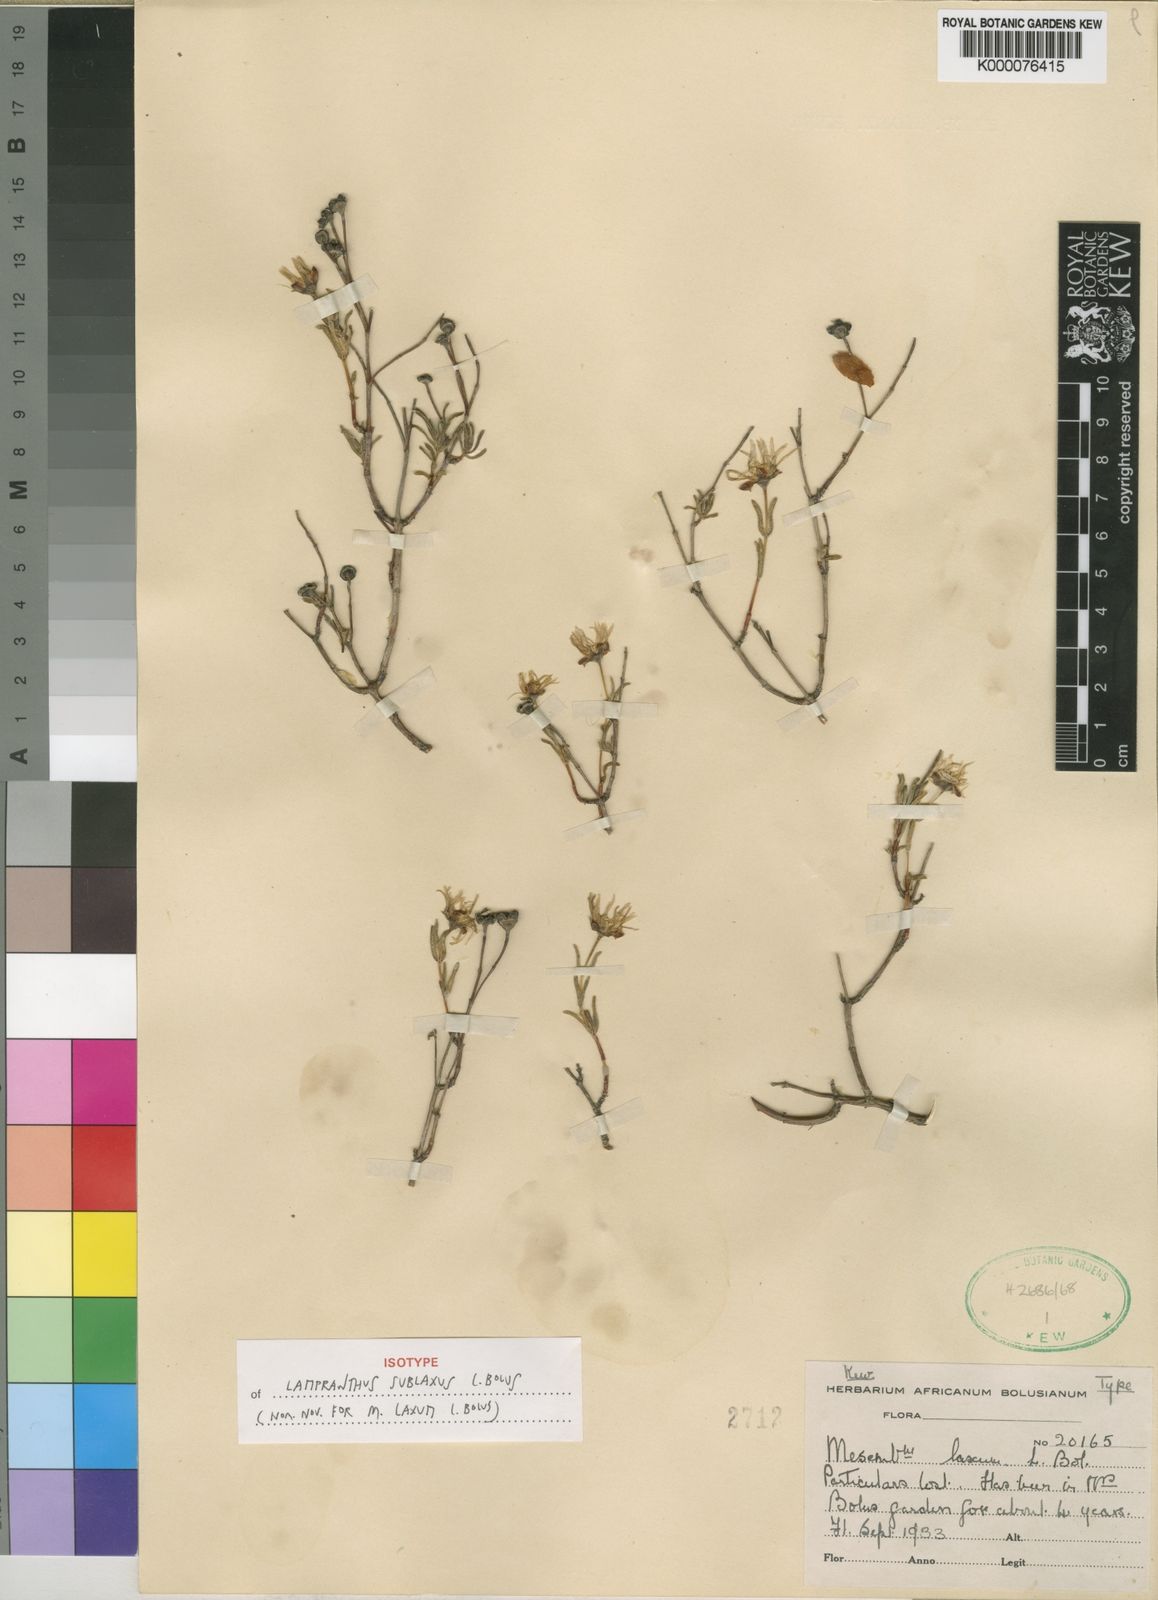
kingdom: Plantae
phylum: Tracheophyta
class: Magnoliopsida
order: Caryophyllales
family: Aizoaceae
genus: Lampranthus
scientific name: Lampranthus sublaxus
